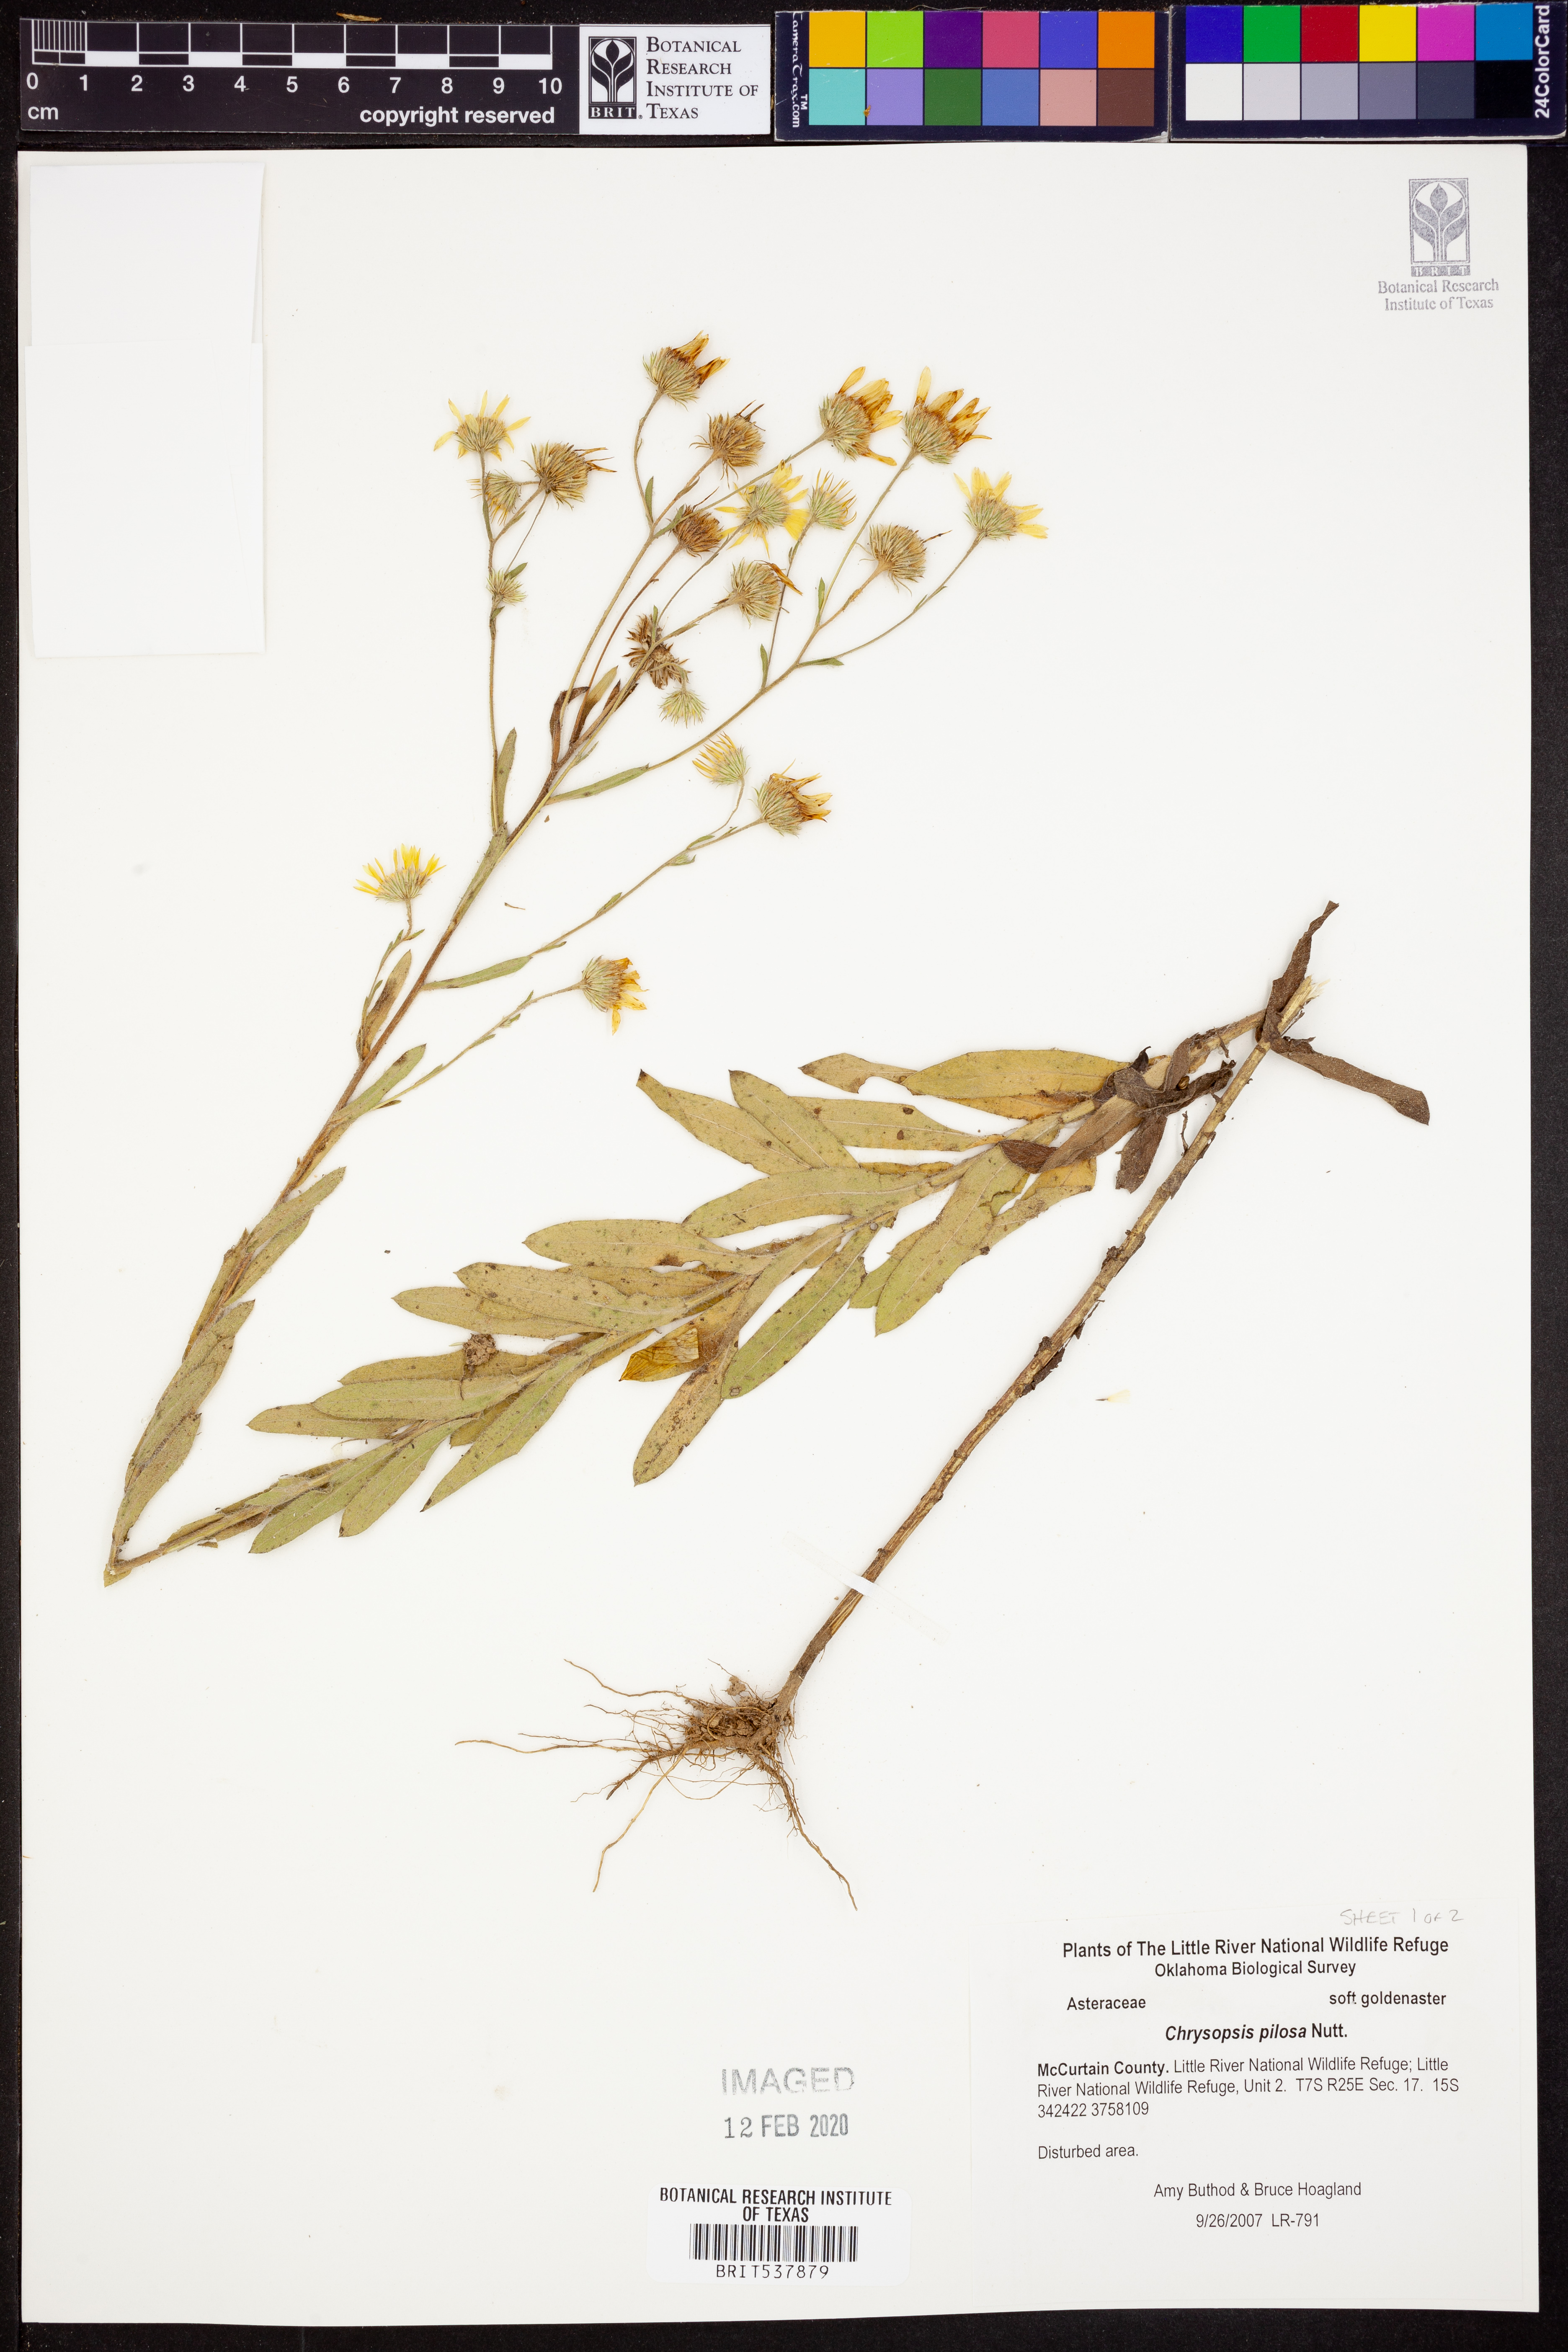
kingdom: Plantae
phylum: Tracheophyta
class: Magnoliopsida
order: Asterales
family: Asteraceae
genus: Bradburia
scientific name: Bradburia pilosa
